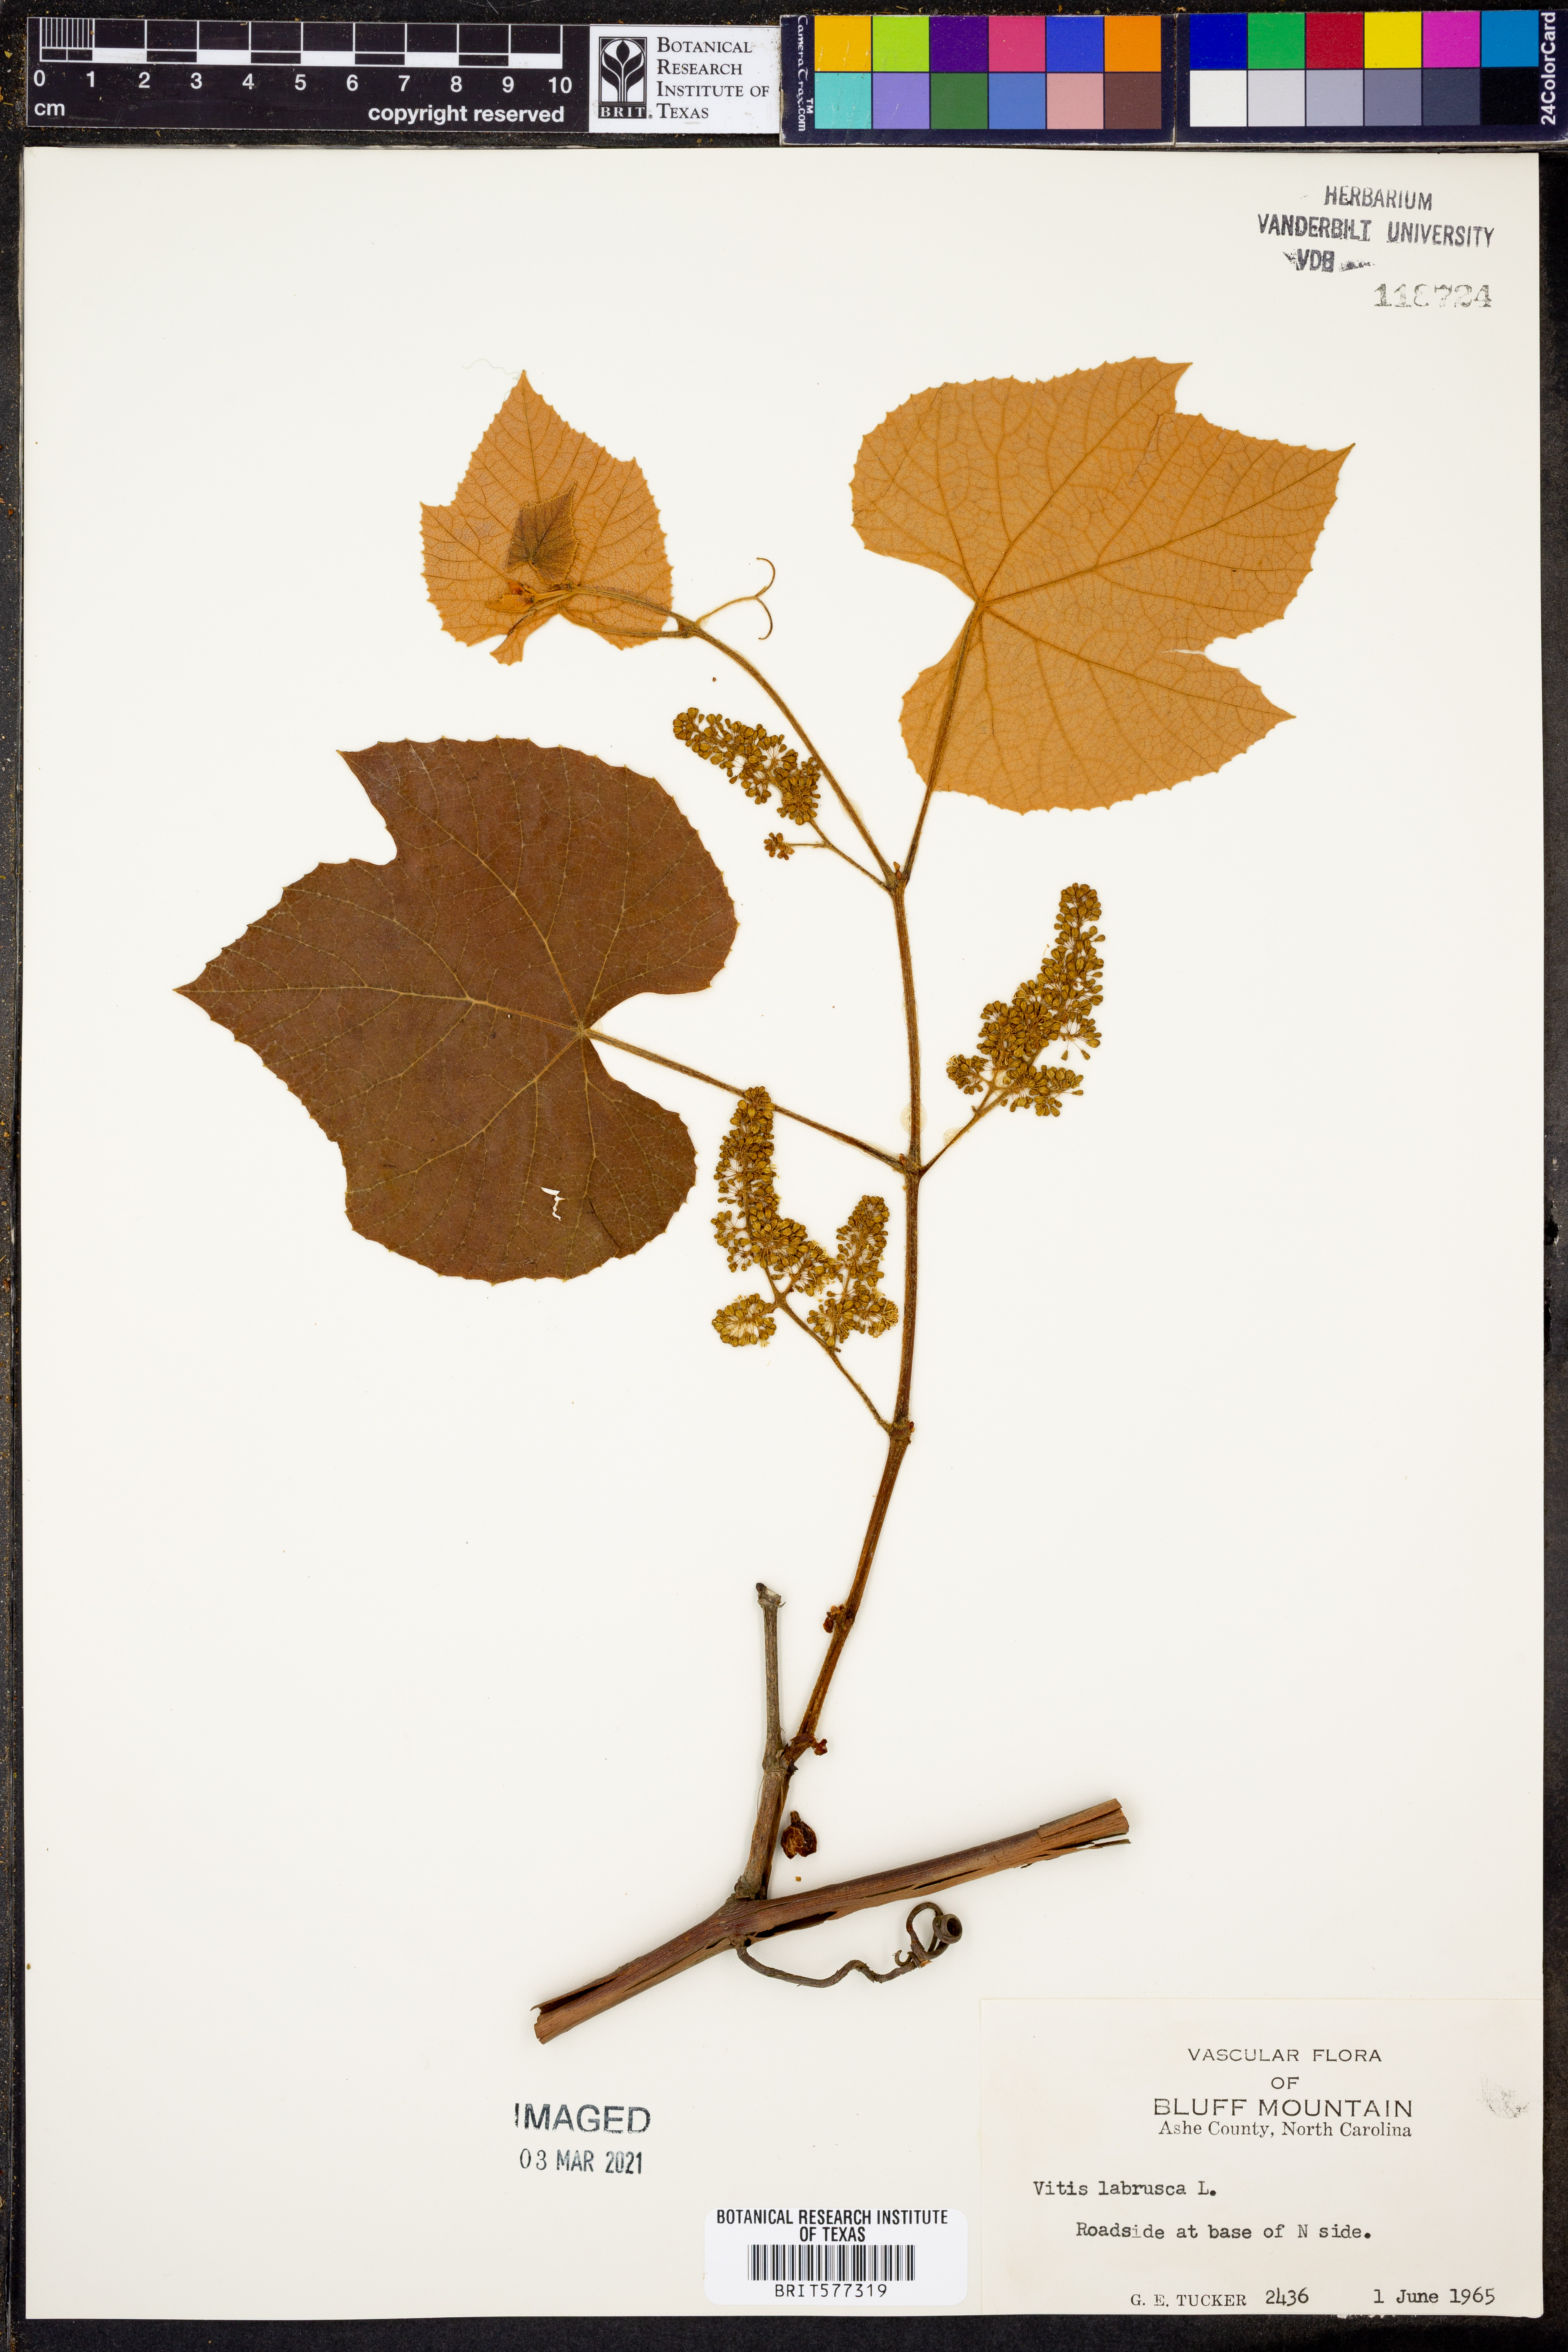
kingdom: Plantae
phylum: Tracheophyta
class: Magnoliopsida
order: Vitales
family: Vitaceae
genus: Vitis
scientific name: Vitis labrusca
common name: Concord grape
